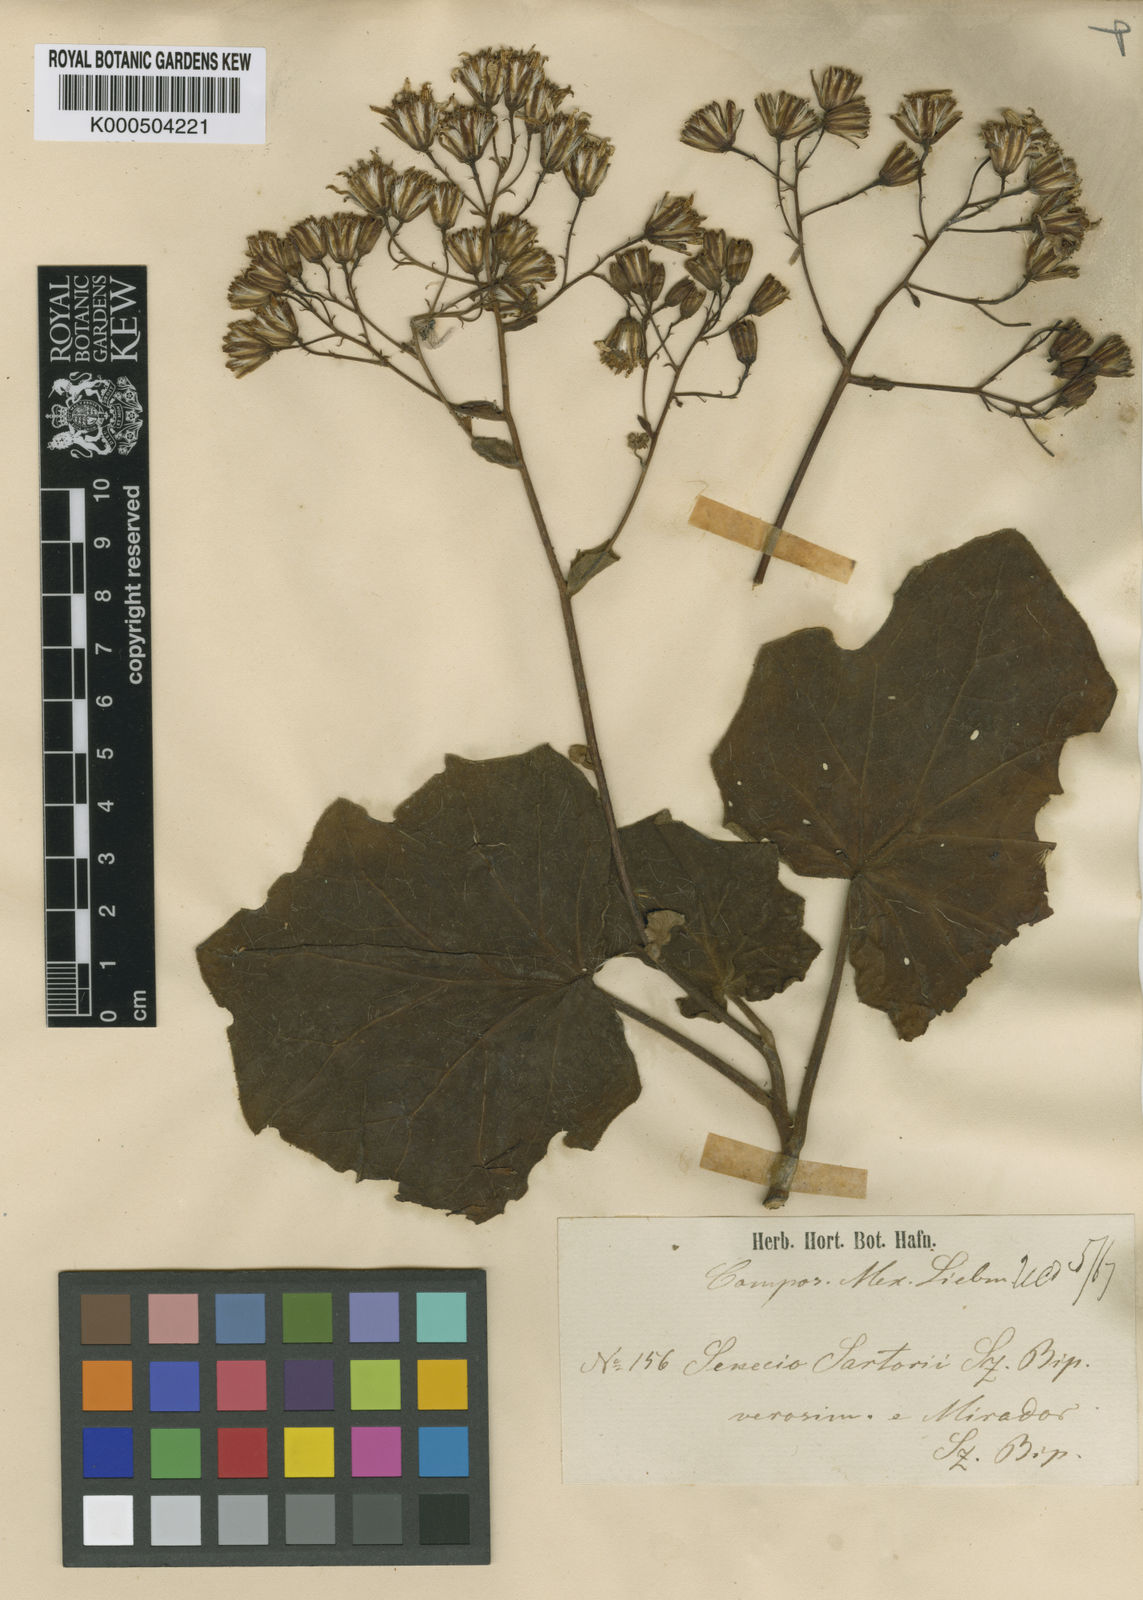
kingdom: Plantae
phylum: Tracheophyta
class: Magnoliopsida
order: Asterales
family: Asteraceae
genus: Roldana
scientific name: Roldana petasitis
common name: California-geranium
